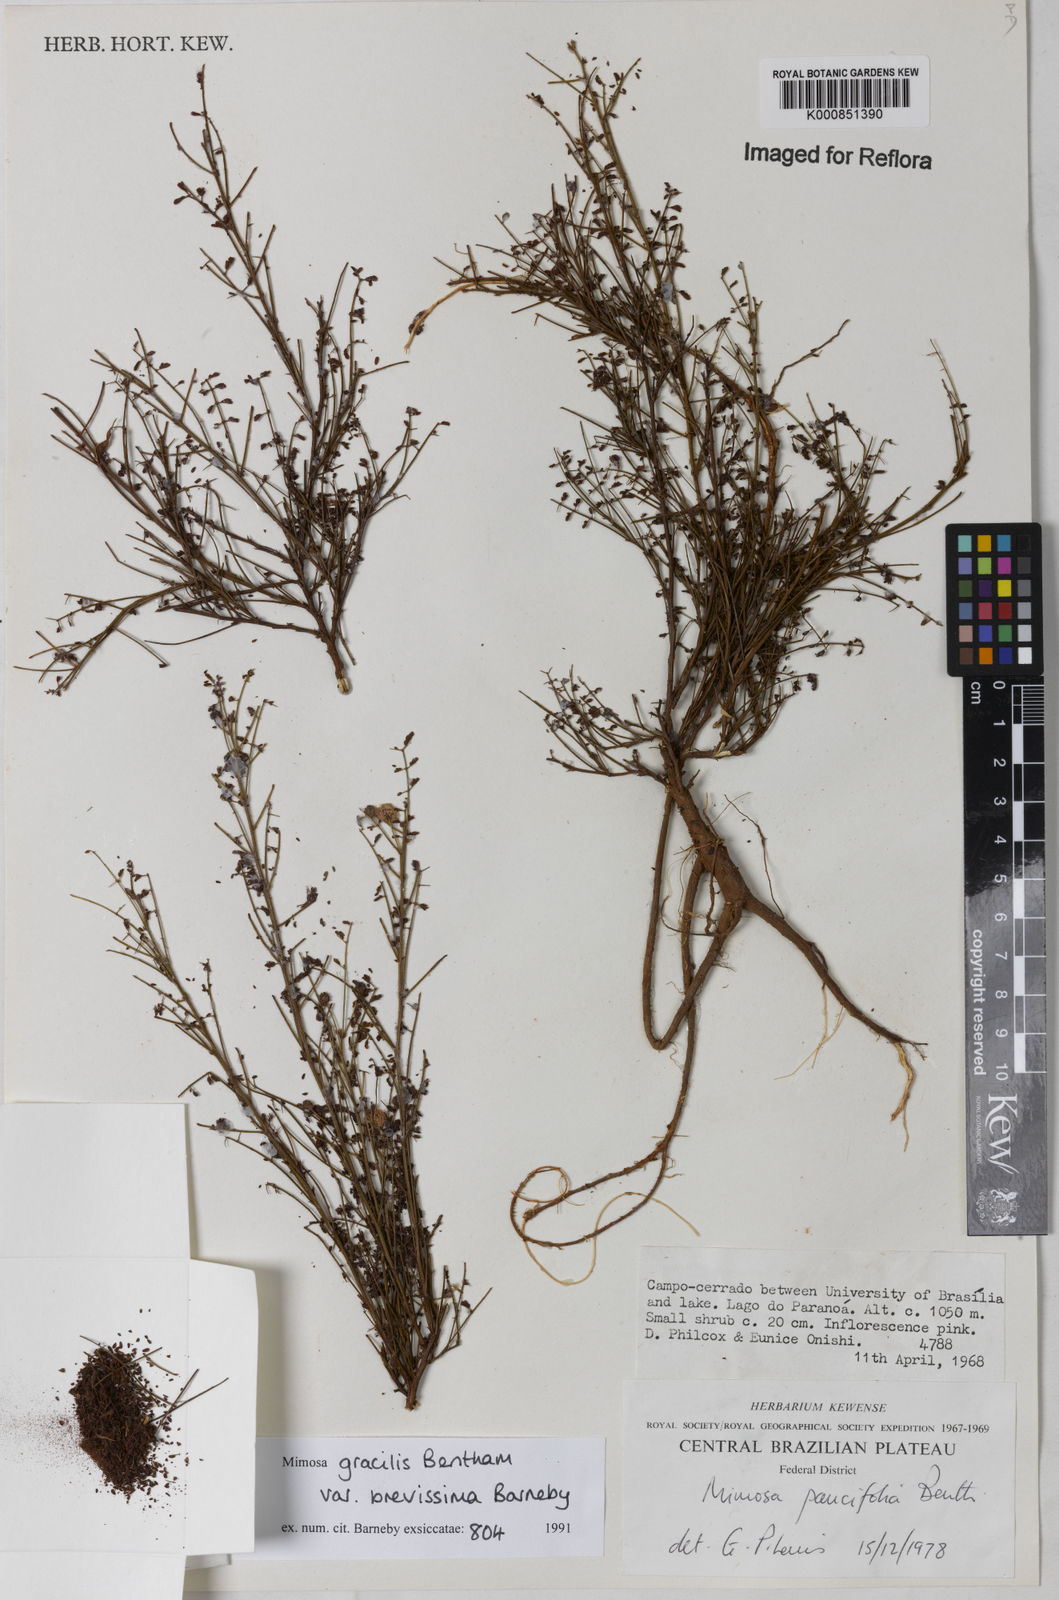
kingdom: Plantae
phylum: Tracheophyta
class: Magnoliopsida
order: Fabales
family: Fabaceae
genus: Mimosa
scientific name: Mimosa gracilis
